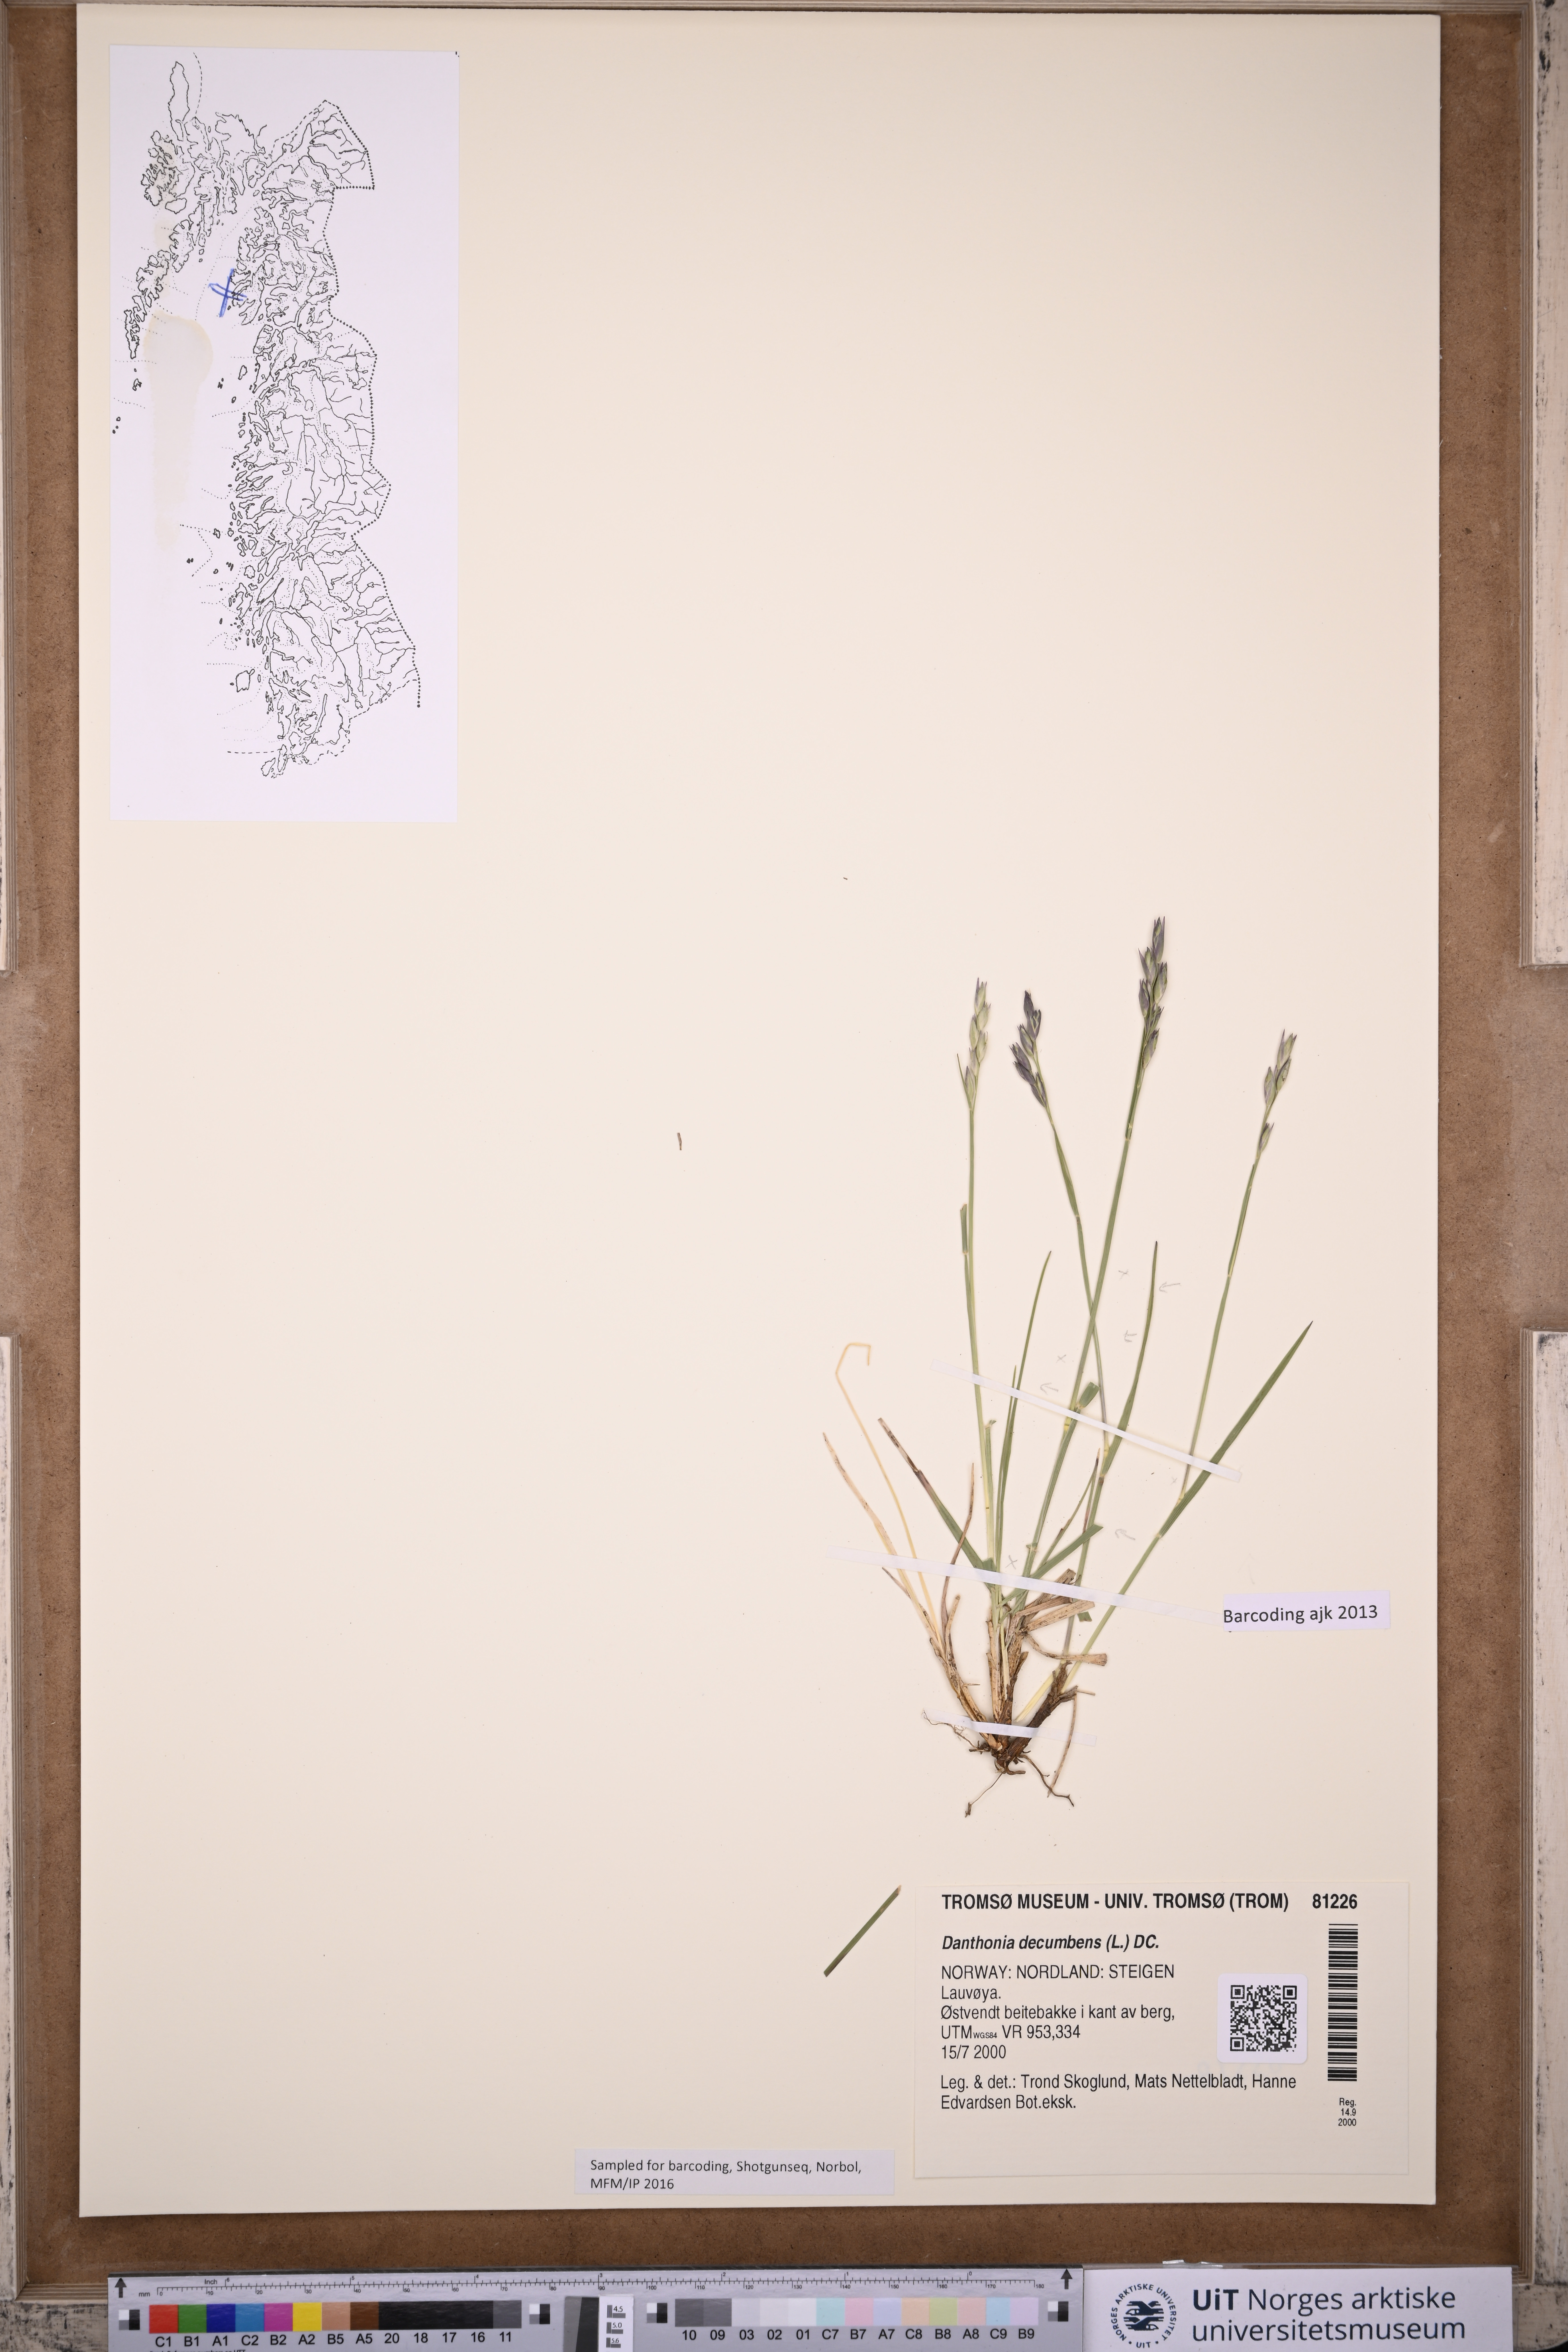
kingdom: Plantae
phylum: Tracheophyta
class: Liliopsida
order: Poales
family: Poaceae
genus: Danthonia
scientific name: Danthonia decumbens
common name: Common heathgrass
